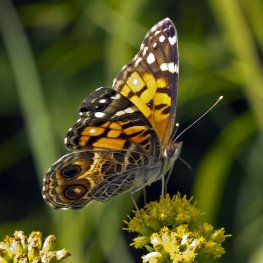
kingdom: Animalia
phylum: Arthropoda
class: Insecta
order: Lepidoptera
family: Nymphalidae
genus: Vanessa
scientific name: Vanessa virginiensis
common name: American Lady
